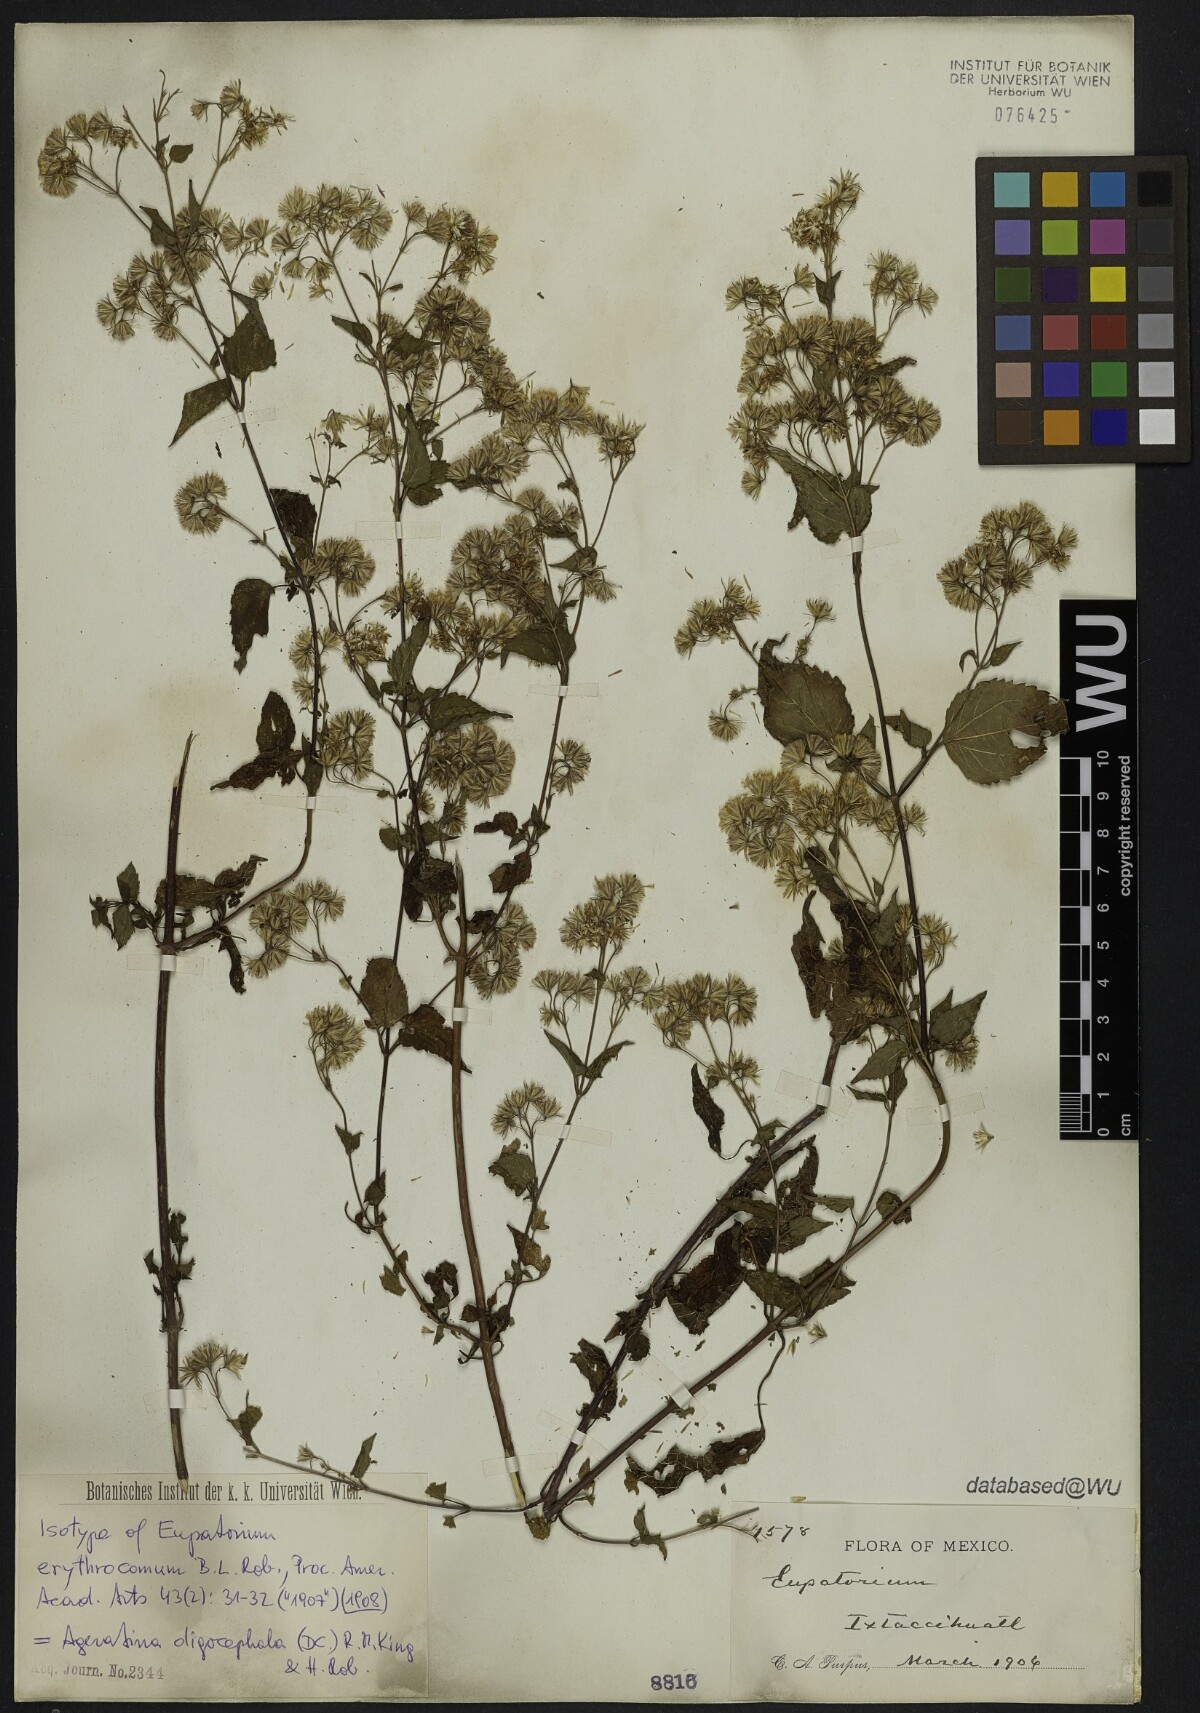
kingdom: Plantae
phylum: Tracheophyta
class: Magnoliopsida
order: Asterales
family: Asteraceae
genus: Ageratina
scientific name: Ageratina oligocephala
